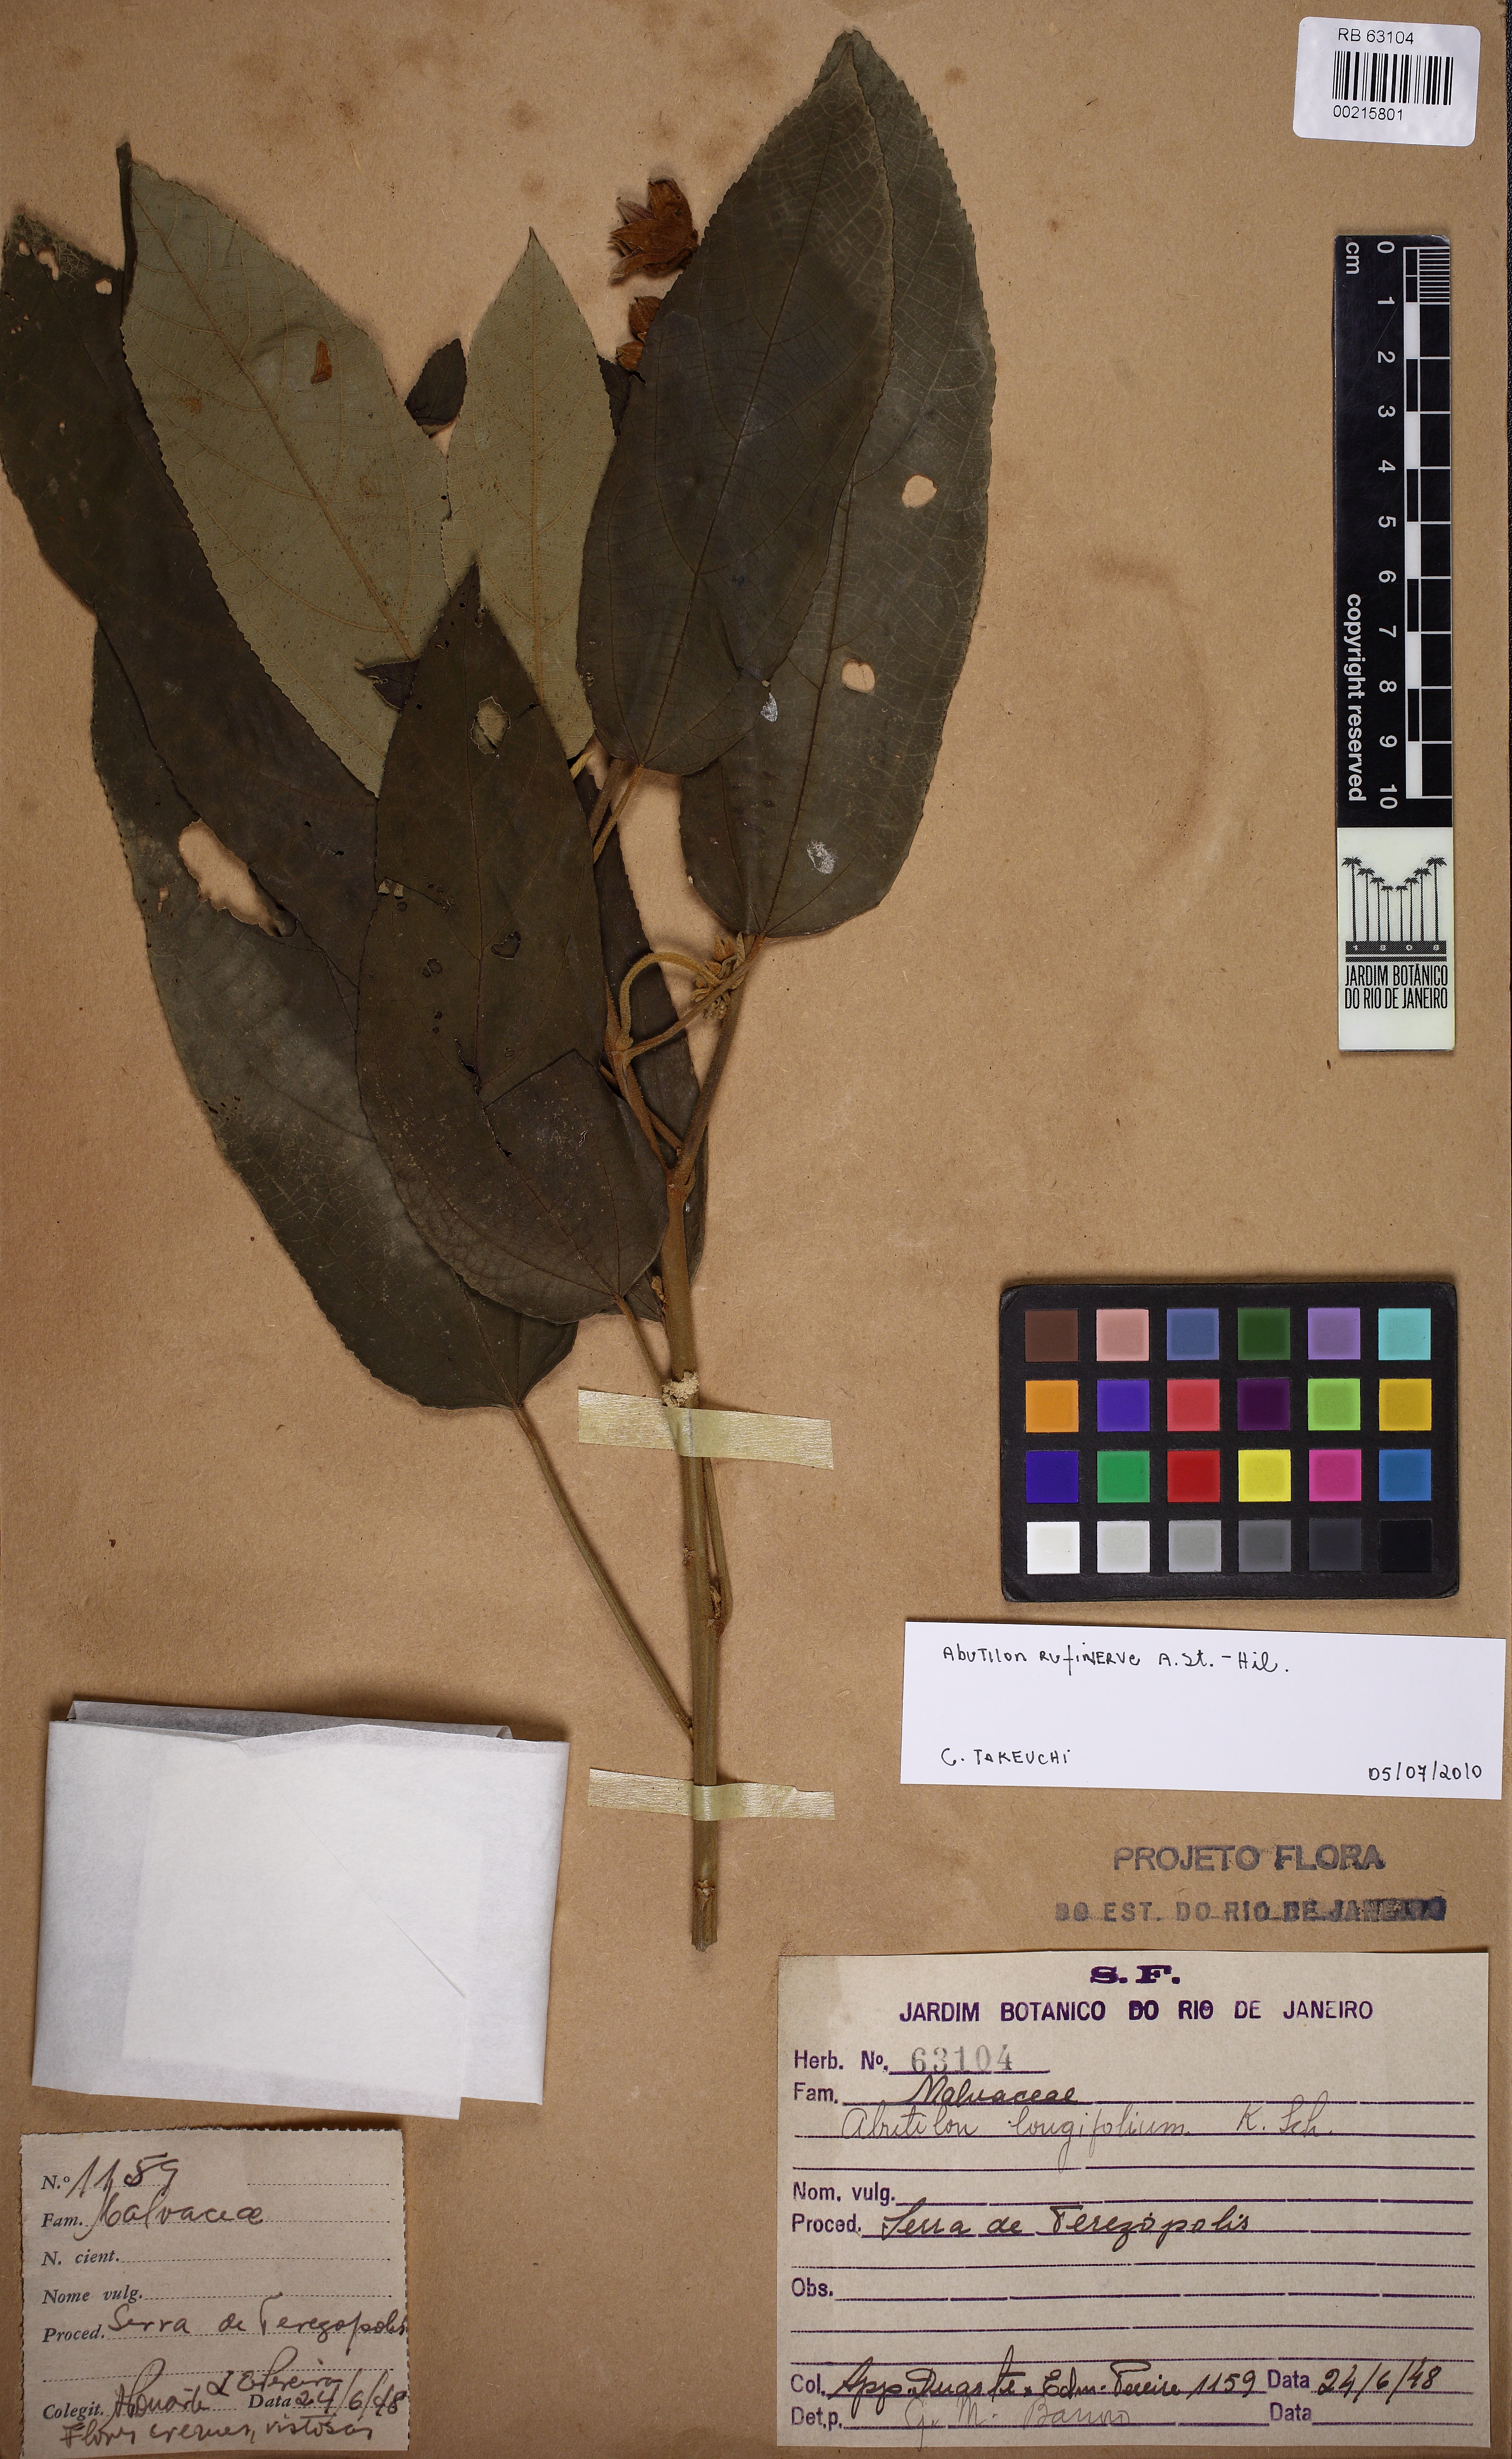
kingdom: Plantae
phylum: Tracheophyta
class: Magnoliopsida
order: Malvales
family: Malvaceae
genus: Callianthe
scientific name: Callianthe rufinerva
